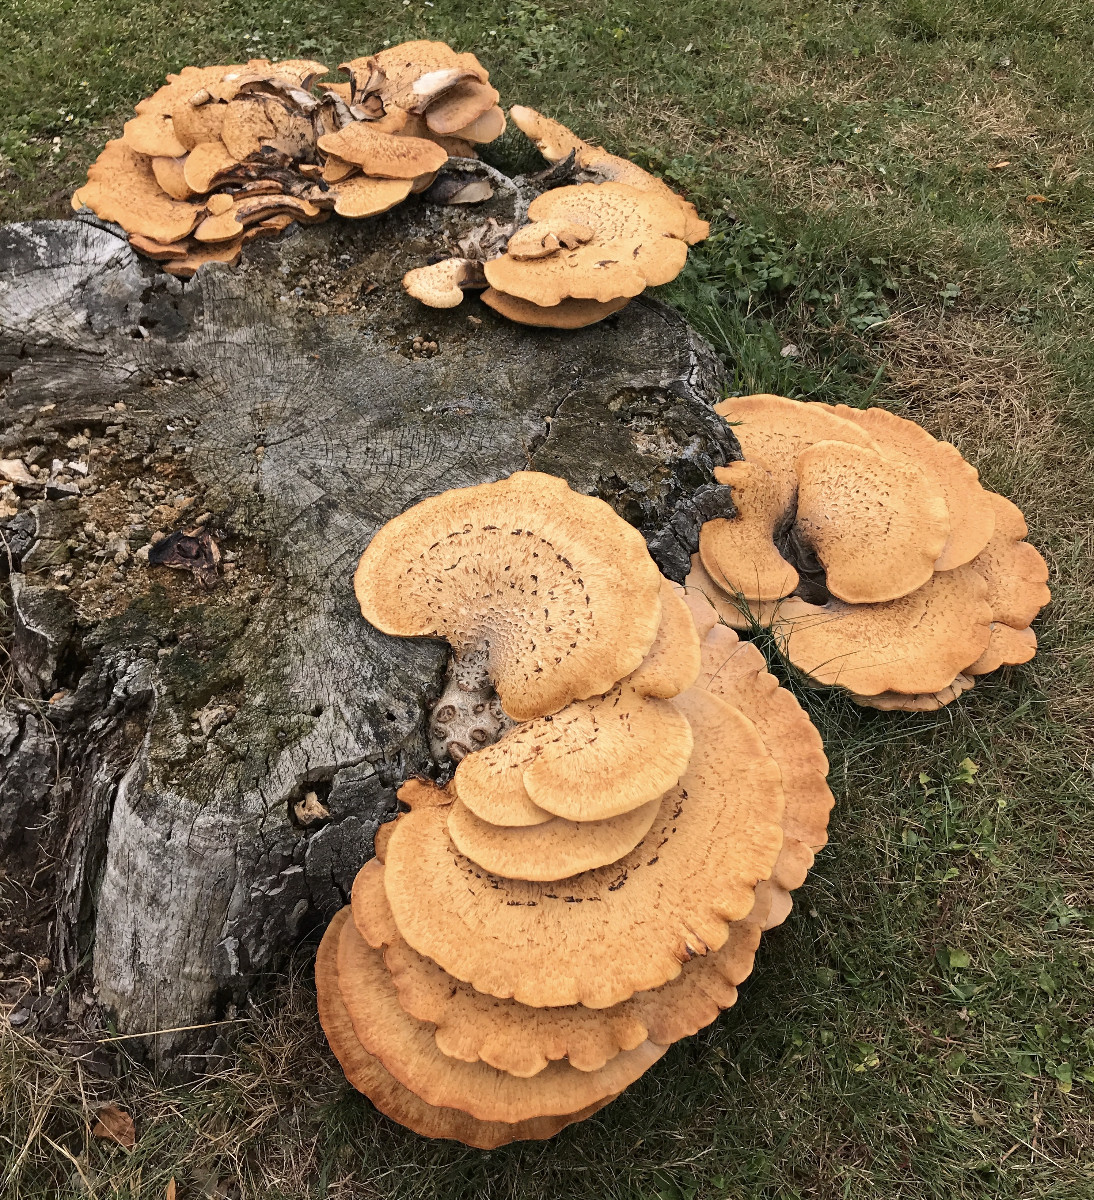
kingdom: Fungi
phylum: Basidiomycota
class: Agaricomycetes
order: Polyporales
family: Polyporaceae
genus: Cerioporus
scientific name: Cerioporus squamosus
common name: skællet stilkporesvamp
